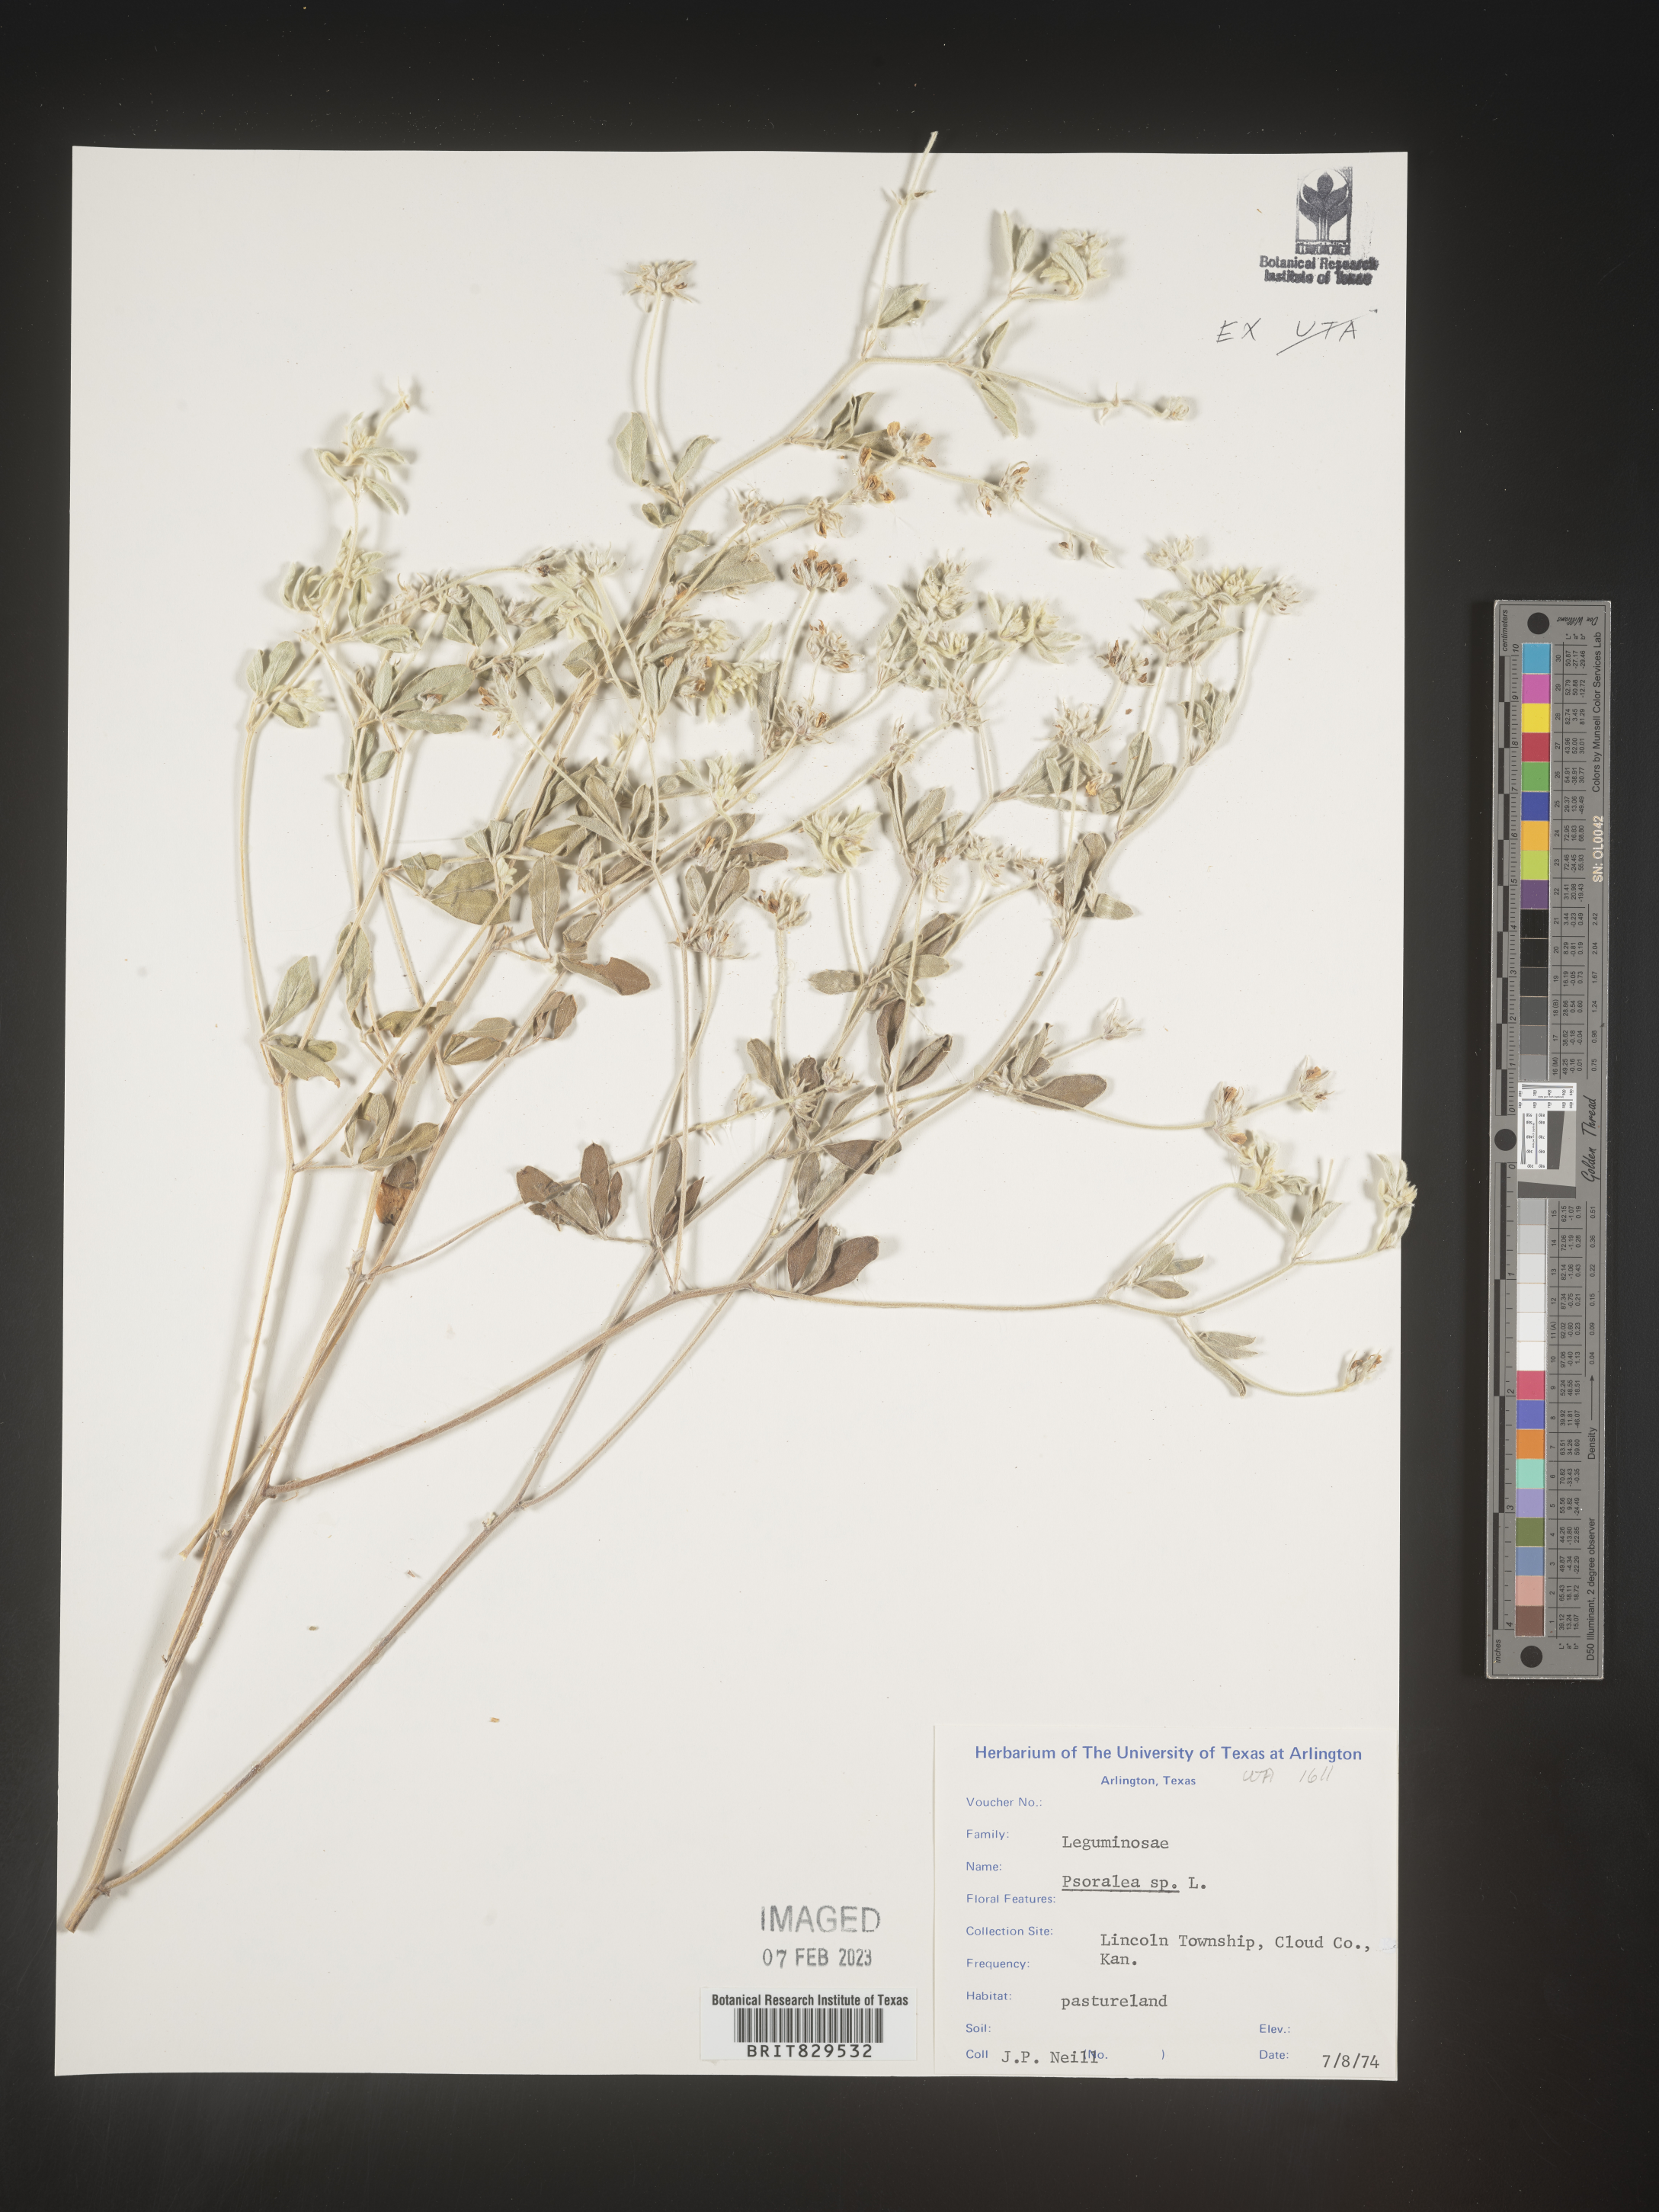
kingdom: Plantae
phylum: Tracheophyta
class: Magnoliopsida
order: Fabales
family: Fabaceae
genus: Psoralea
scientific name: Psoralea
